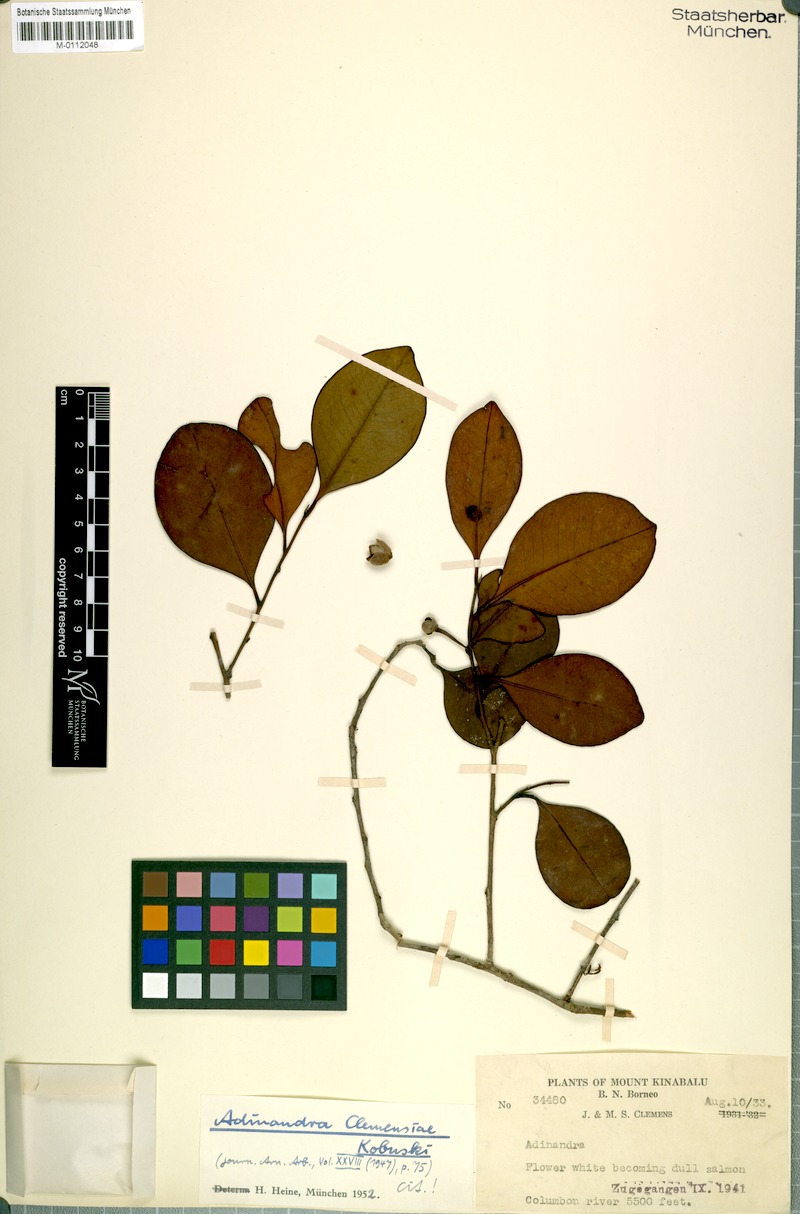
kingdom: Plantae
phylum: Tracheophyta
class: Magnoliopsida
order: Ericales
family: Pentaphylacaceae
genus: Adinandra
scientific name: Adinandra clemensiae
